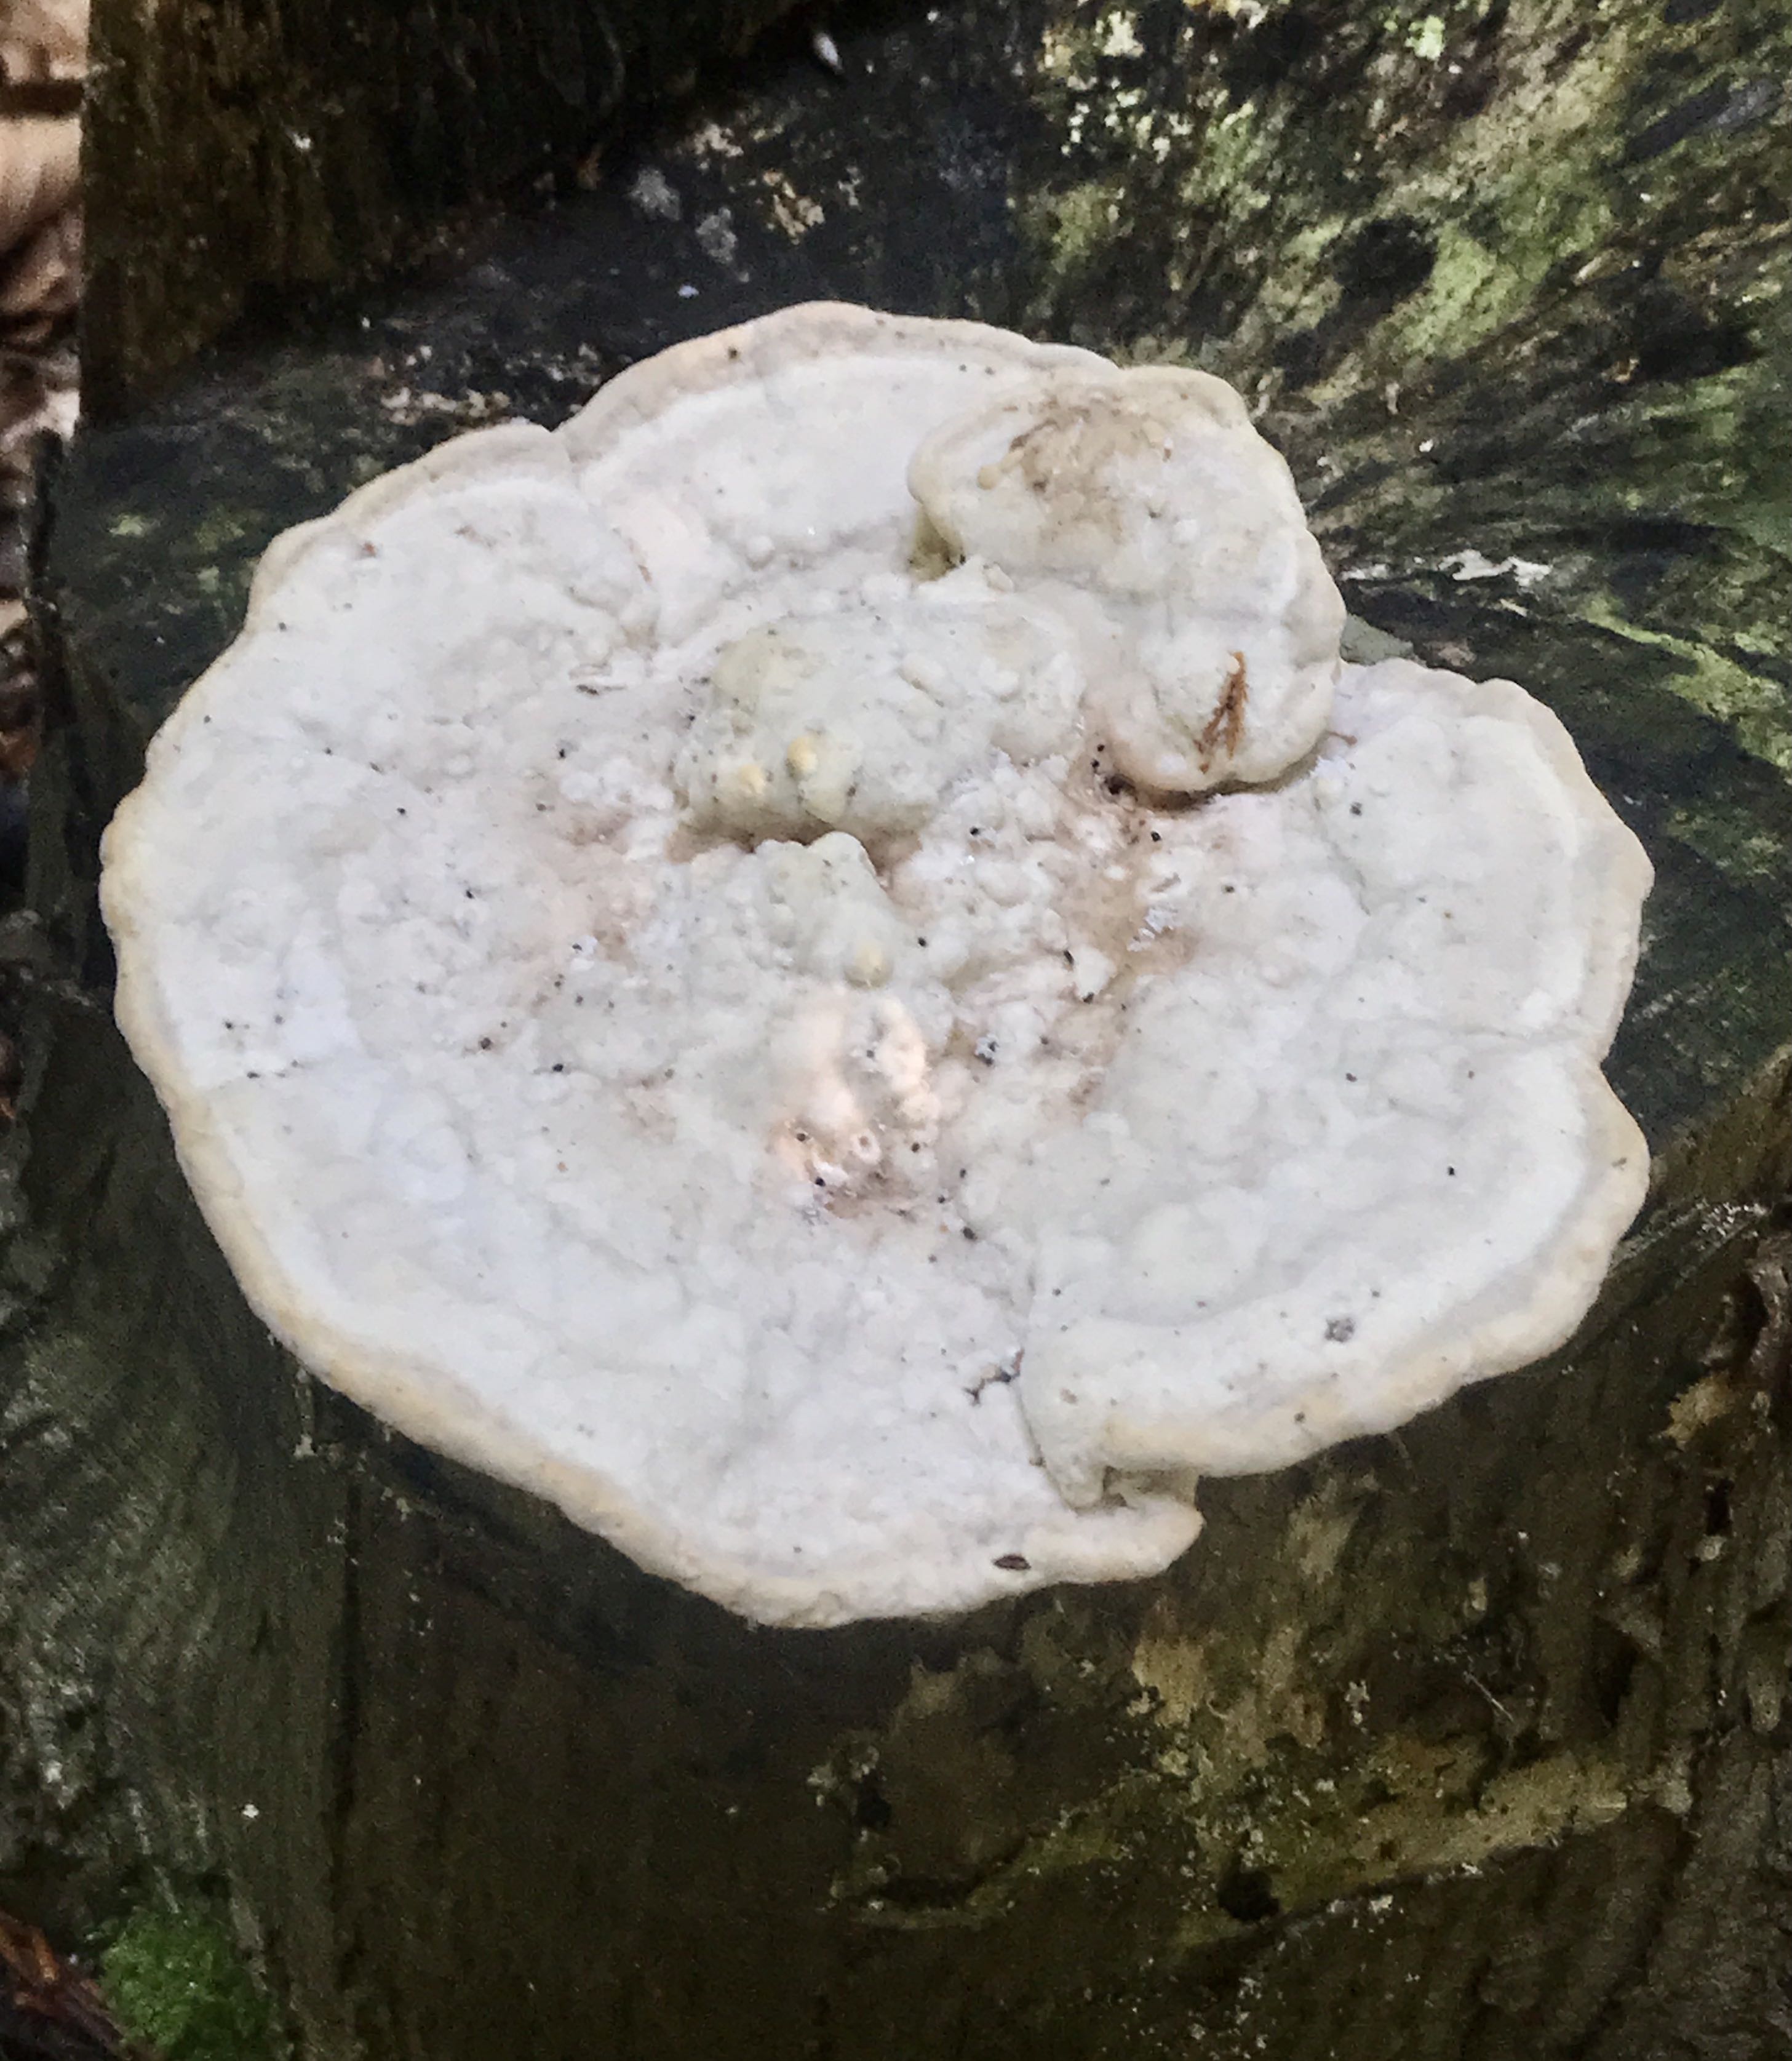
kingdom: Fungi
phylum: Basidiomycota
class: Agaricomycetes
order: Polyporales
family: Polyporaceae
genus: Trametes
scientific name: Trametes gibbosa
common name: puklet læderporesvamp
